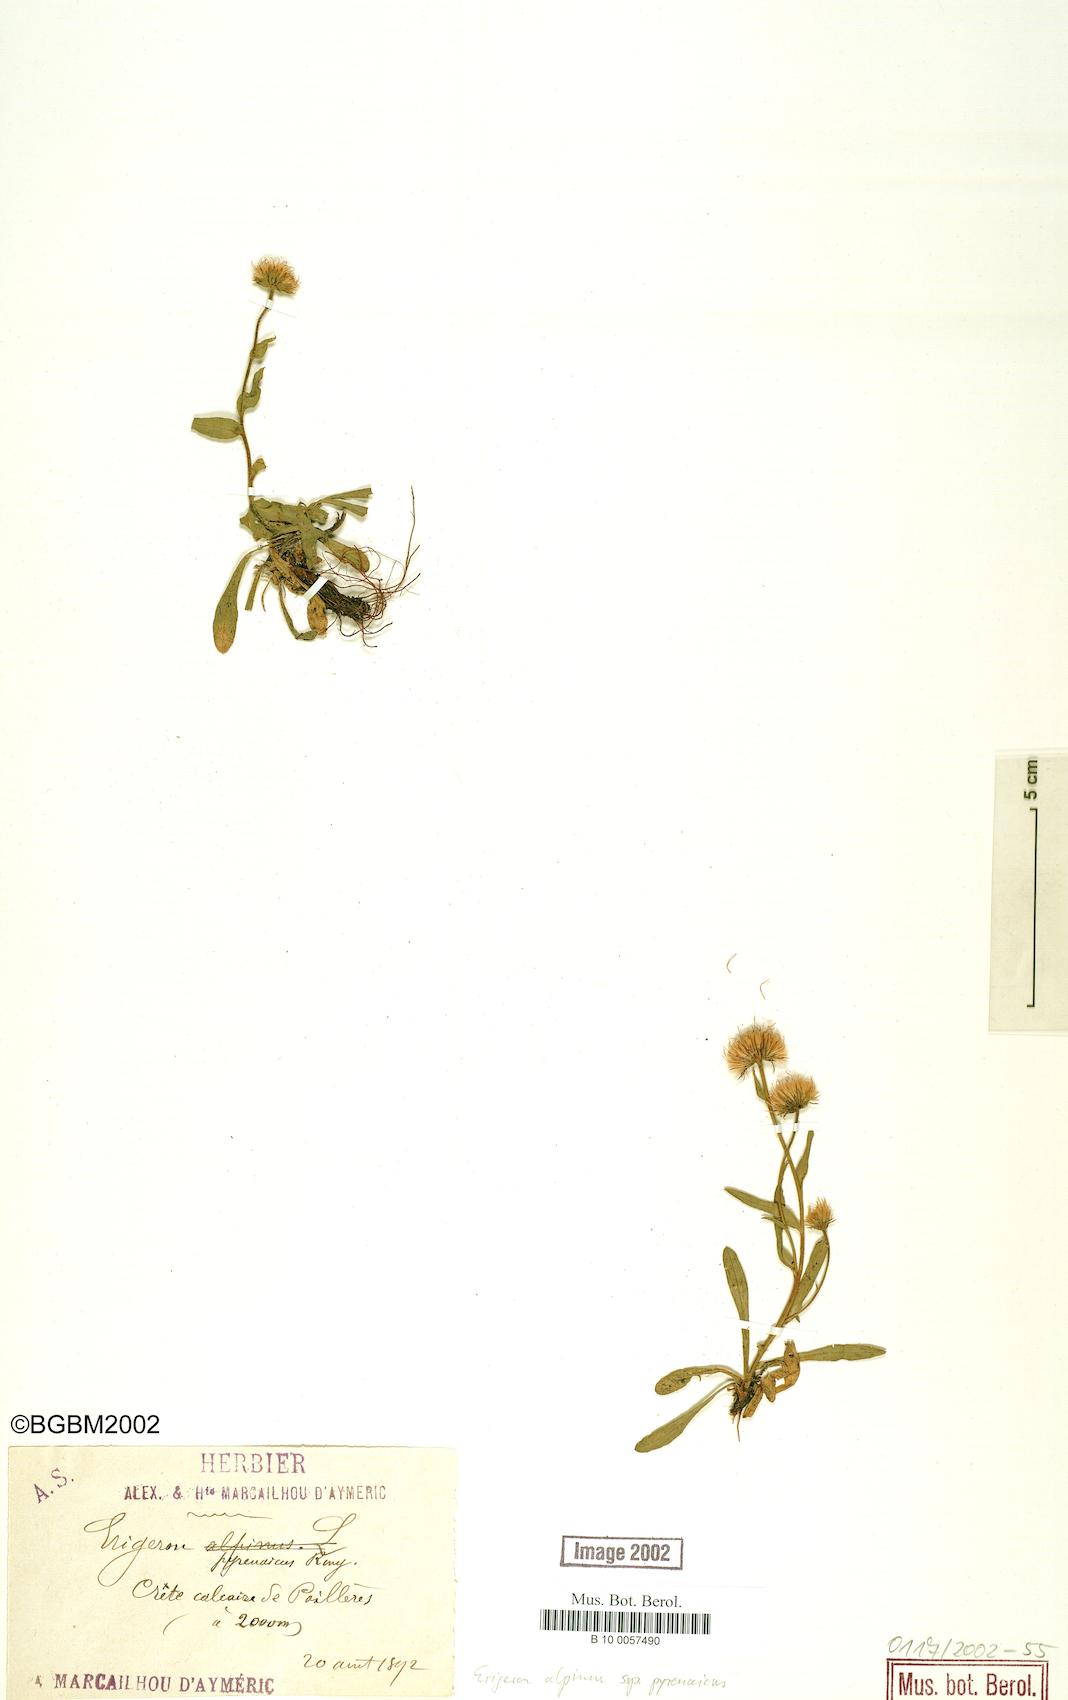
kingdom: Plantae
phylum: Tracheophyta
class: Magnoliopsida
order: Asterales
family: Asteraceae
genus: Erigeron
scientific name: Erigeron uniflorus
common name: Northern daisy
